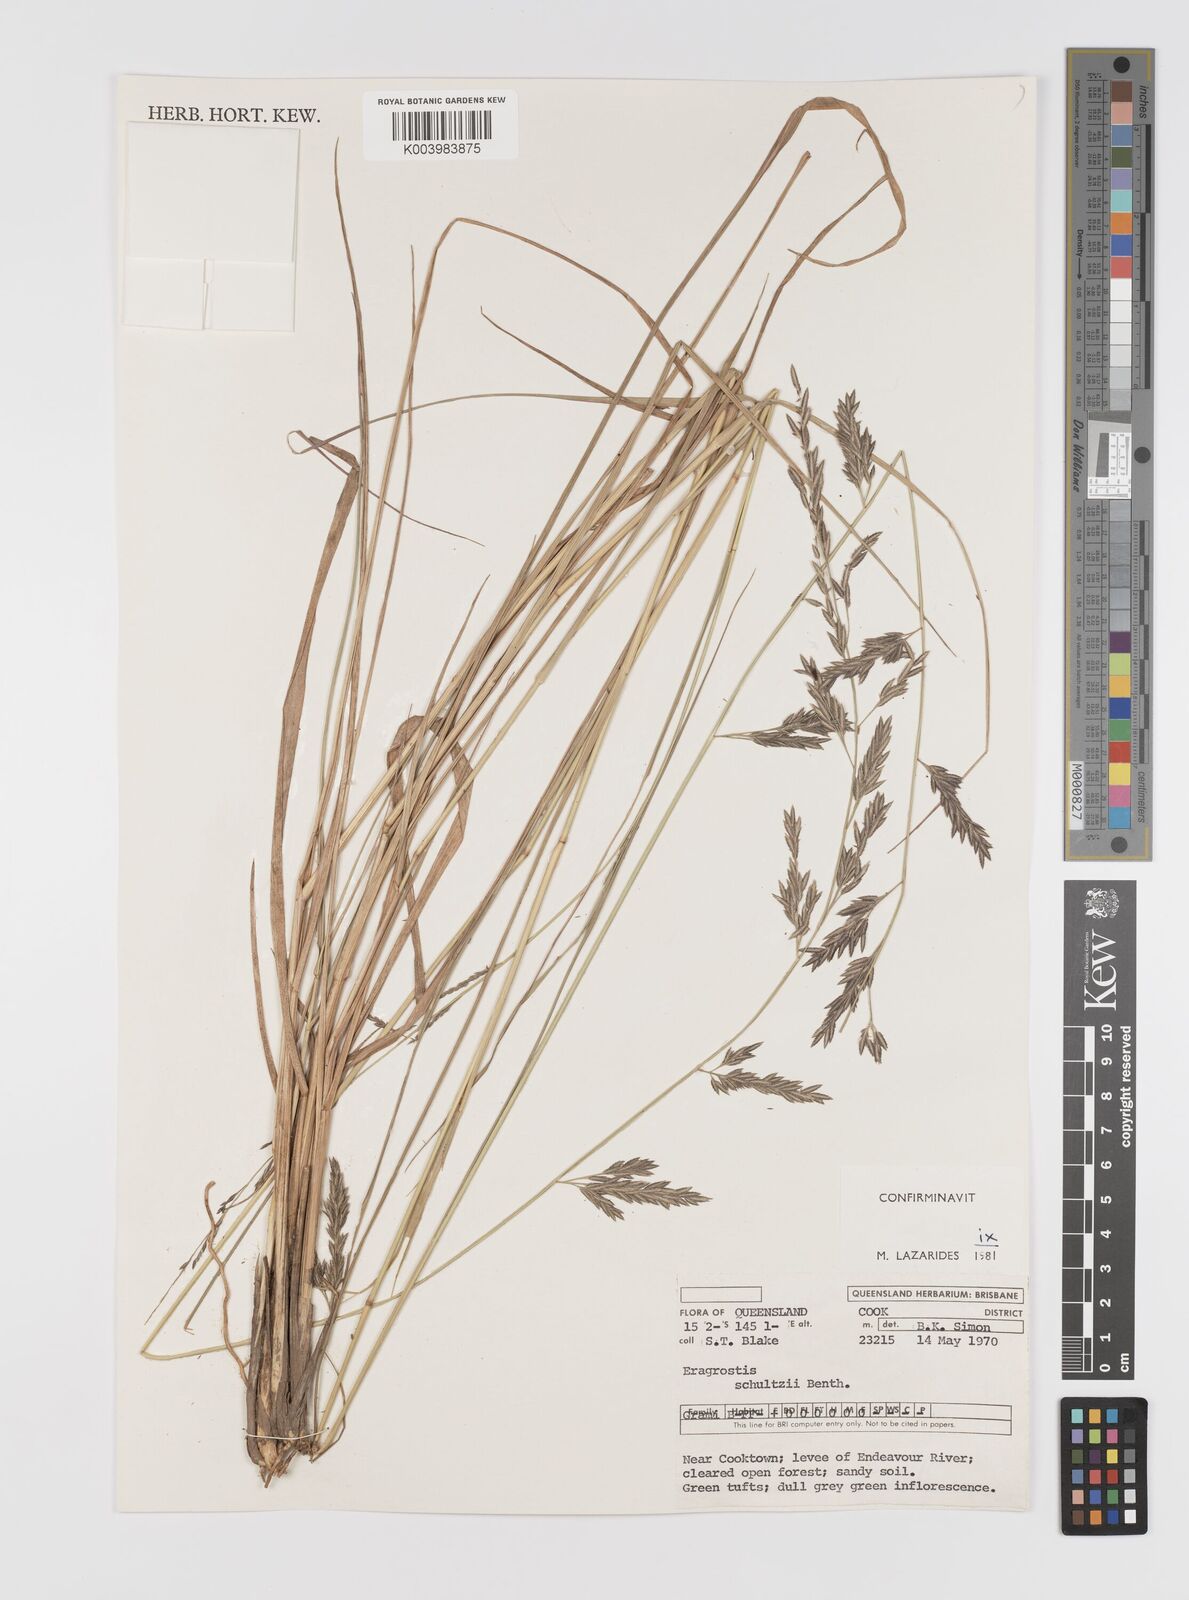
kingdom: Plantae
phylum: Tracheophyta
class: Liliopsida
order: Poales
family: Poaceae
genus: Eragrostis
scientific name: Eragrostis schultzii
